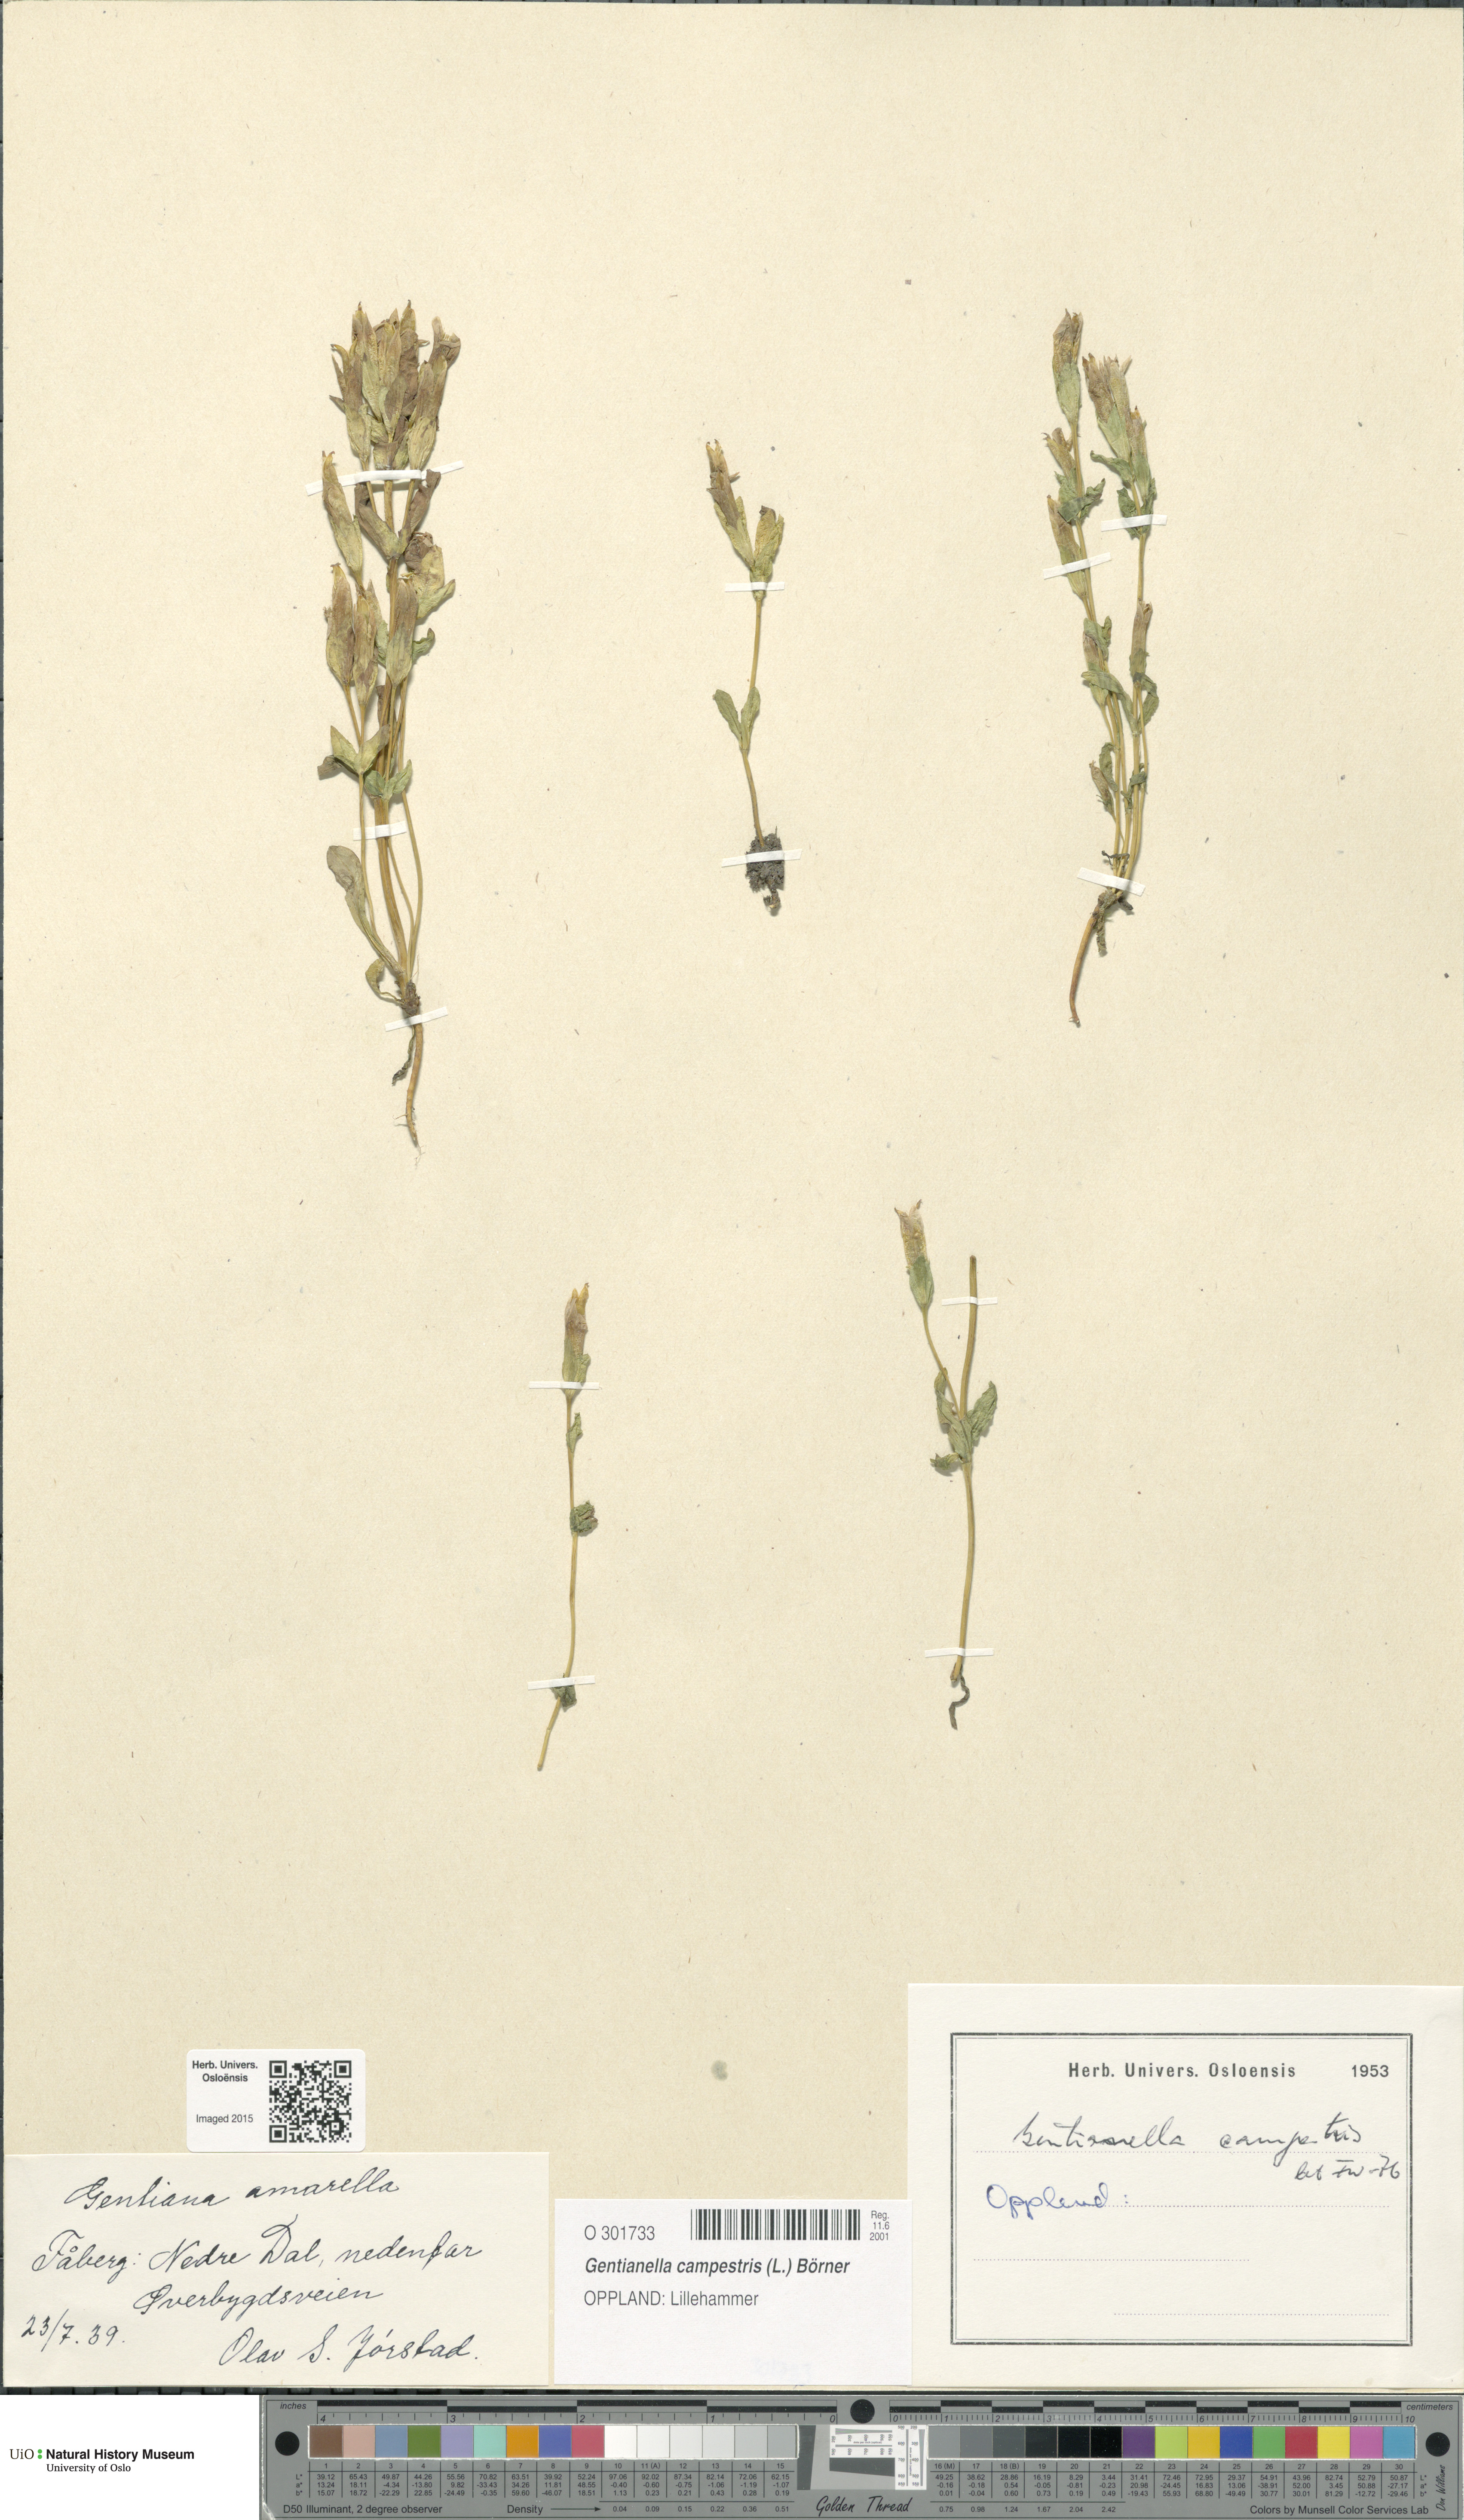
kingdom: Plantae
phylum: Tracheophyta
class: Magnoliopsida
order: Gentianales
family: Gentianaceae
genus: Gentianella
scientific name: Gentianella campestris
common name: Field gentian
